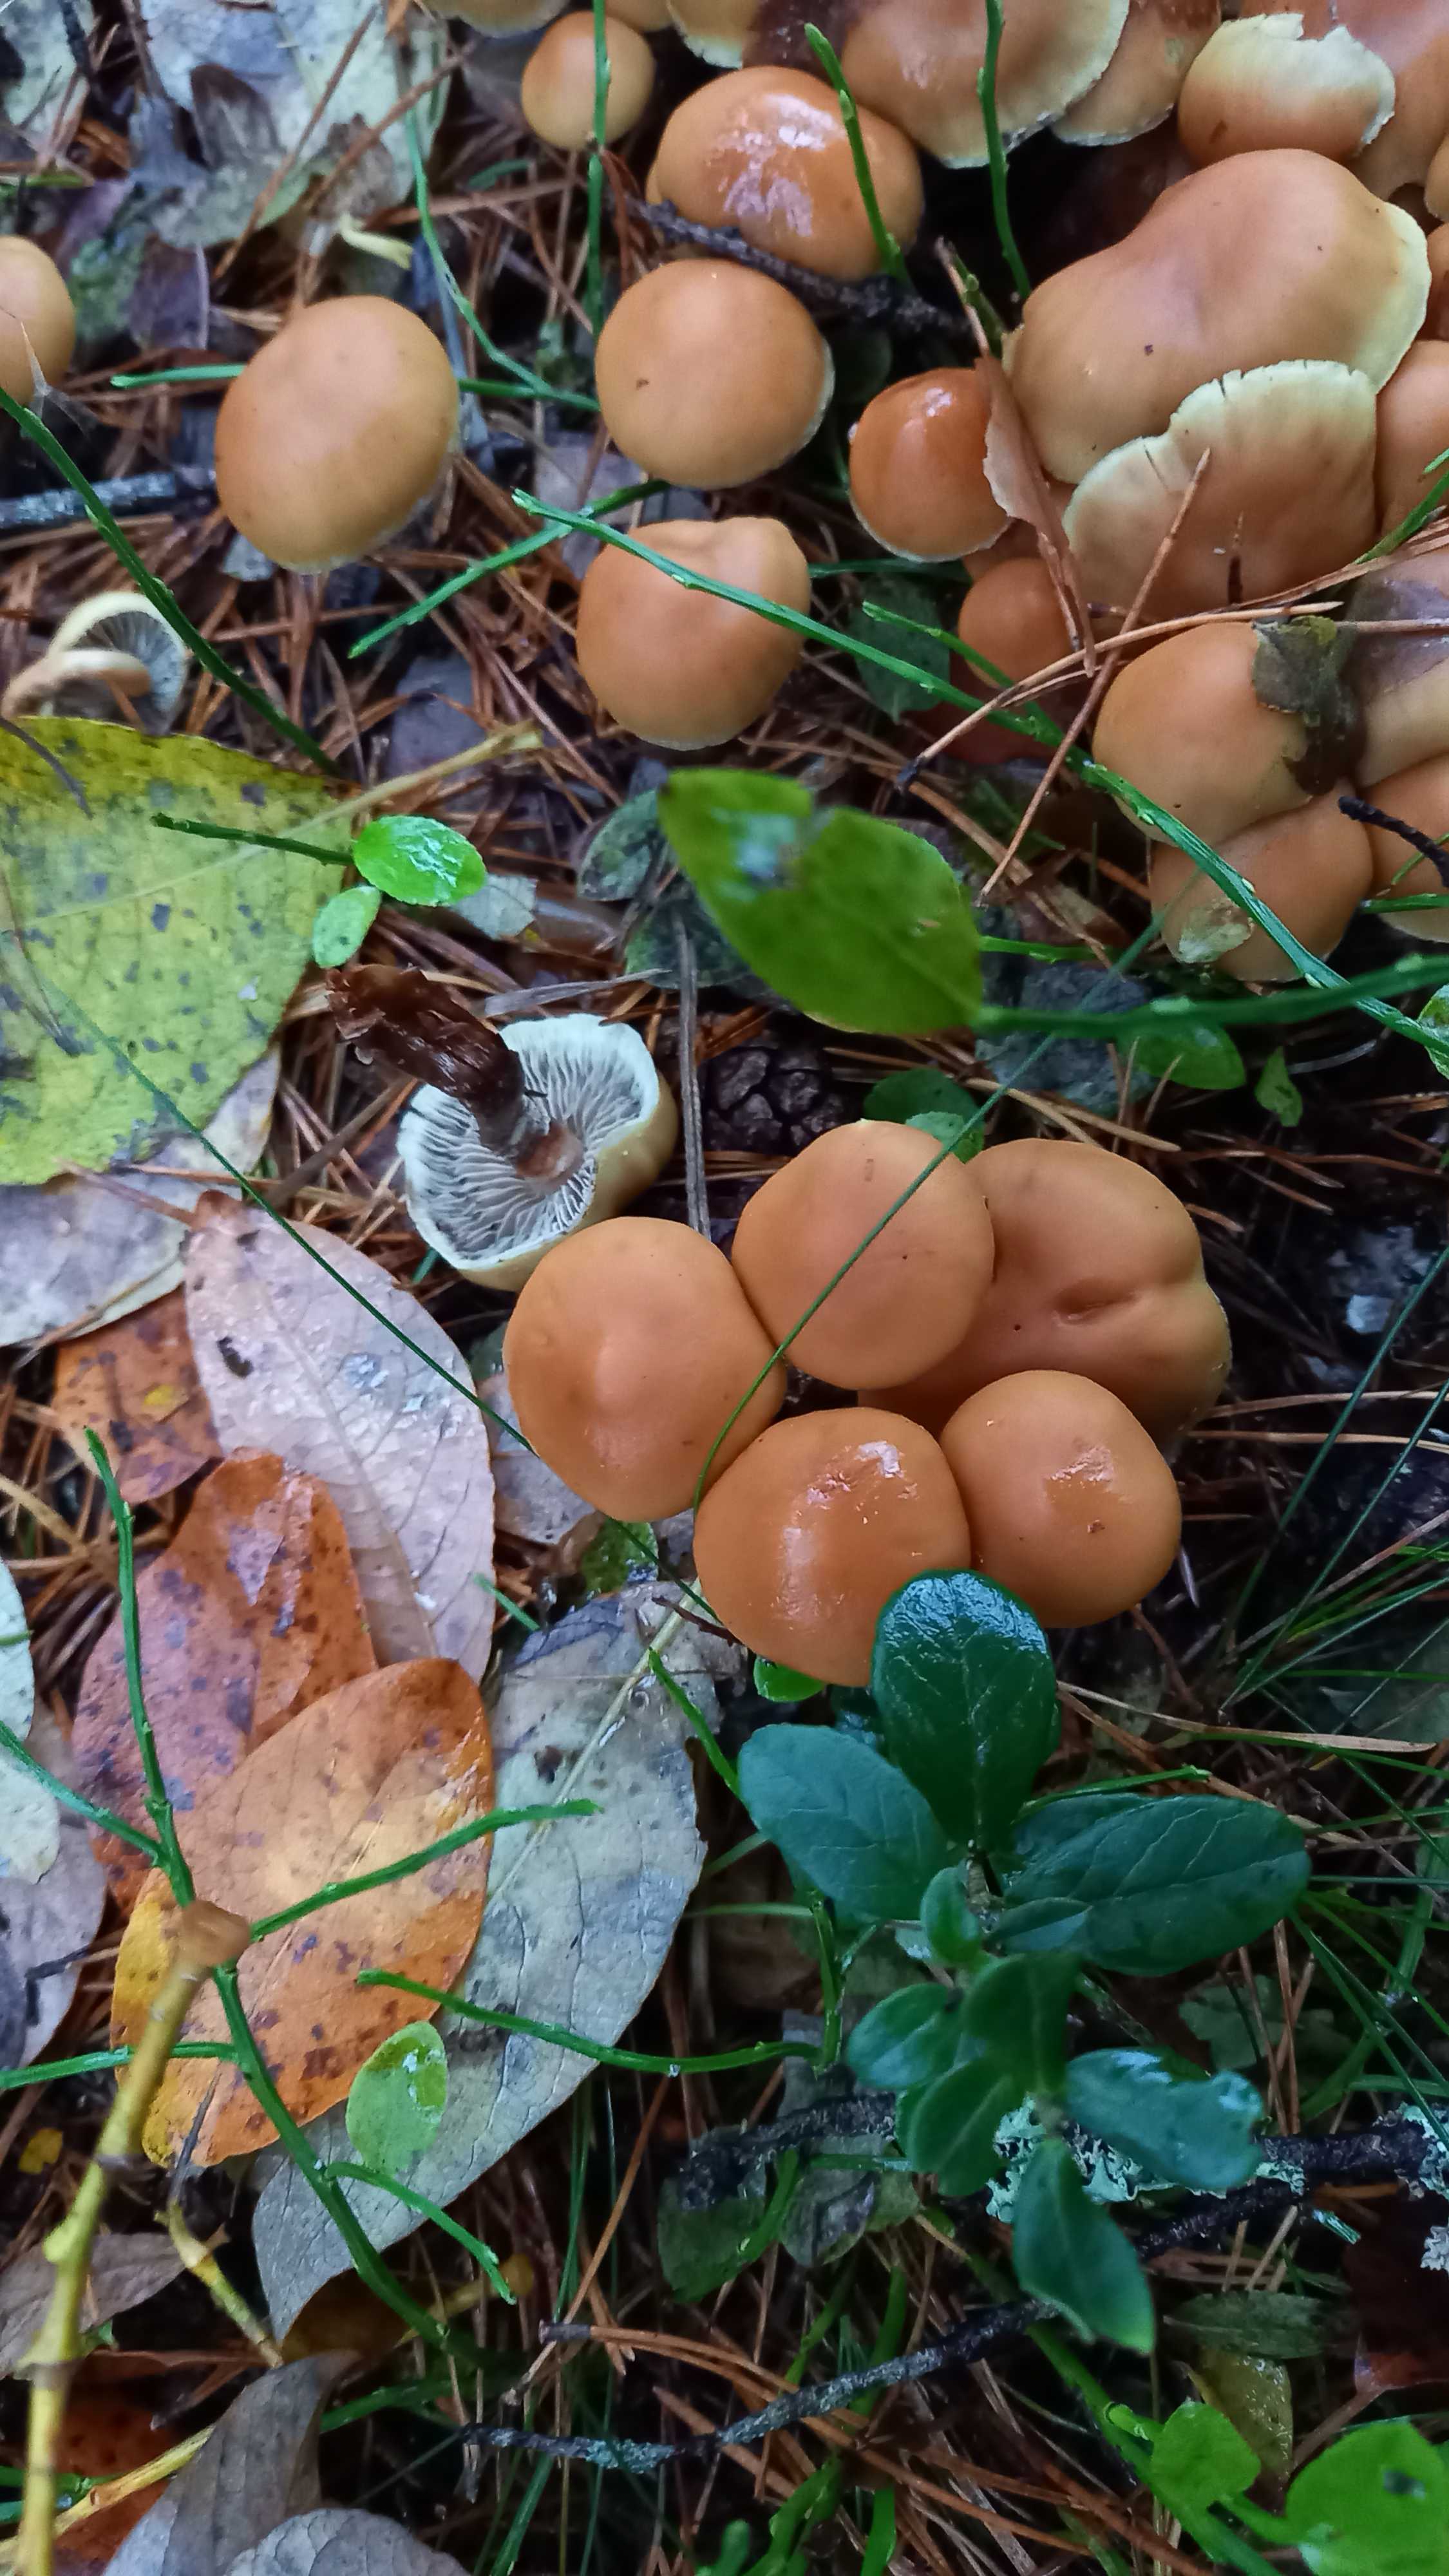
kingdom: Fungi
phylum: Basidiomycota
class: Agaricomycetes
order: Agaricales
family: Strophariaceae
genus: Hypholoma
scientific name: Hypholoma
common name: svovlhat
